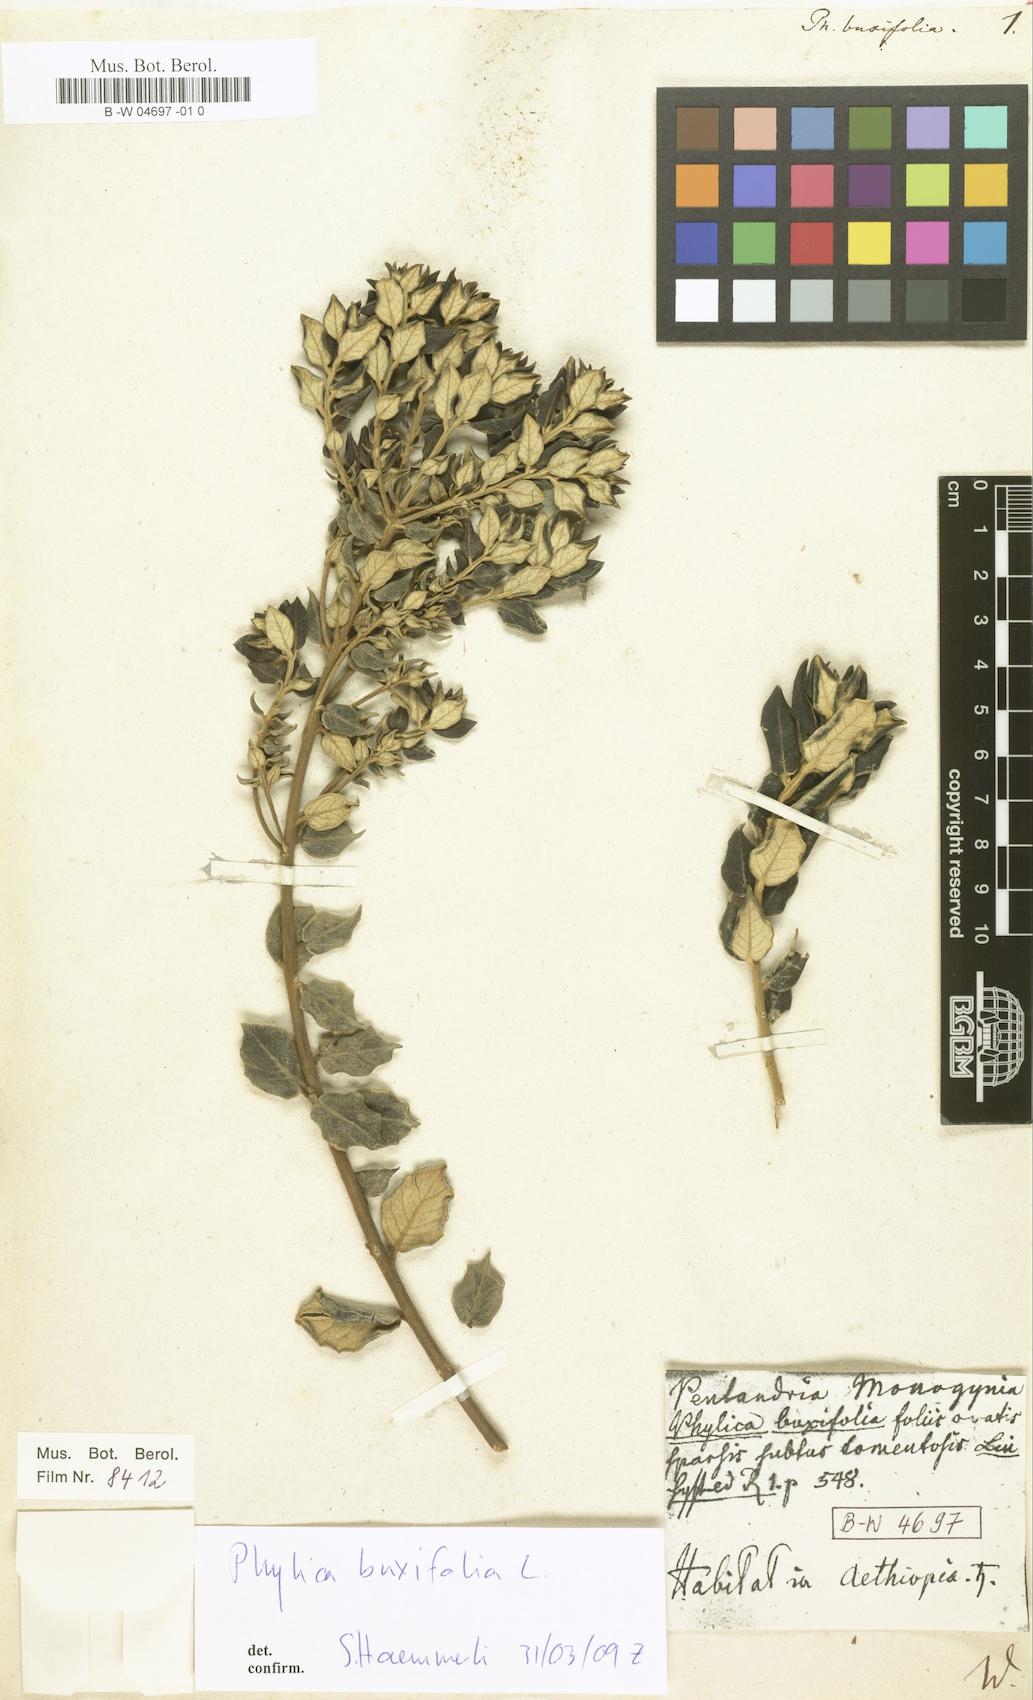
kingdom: Plantae
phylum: Tracheophyta
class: Magnoliopsida
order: Rosales
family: Rhamnaceae
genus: Phylica
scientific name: Phylica buxifolia
